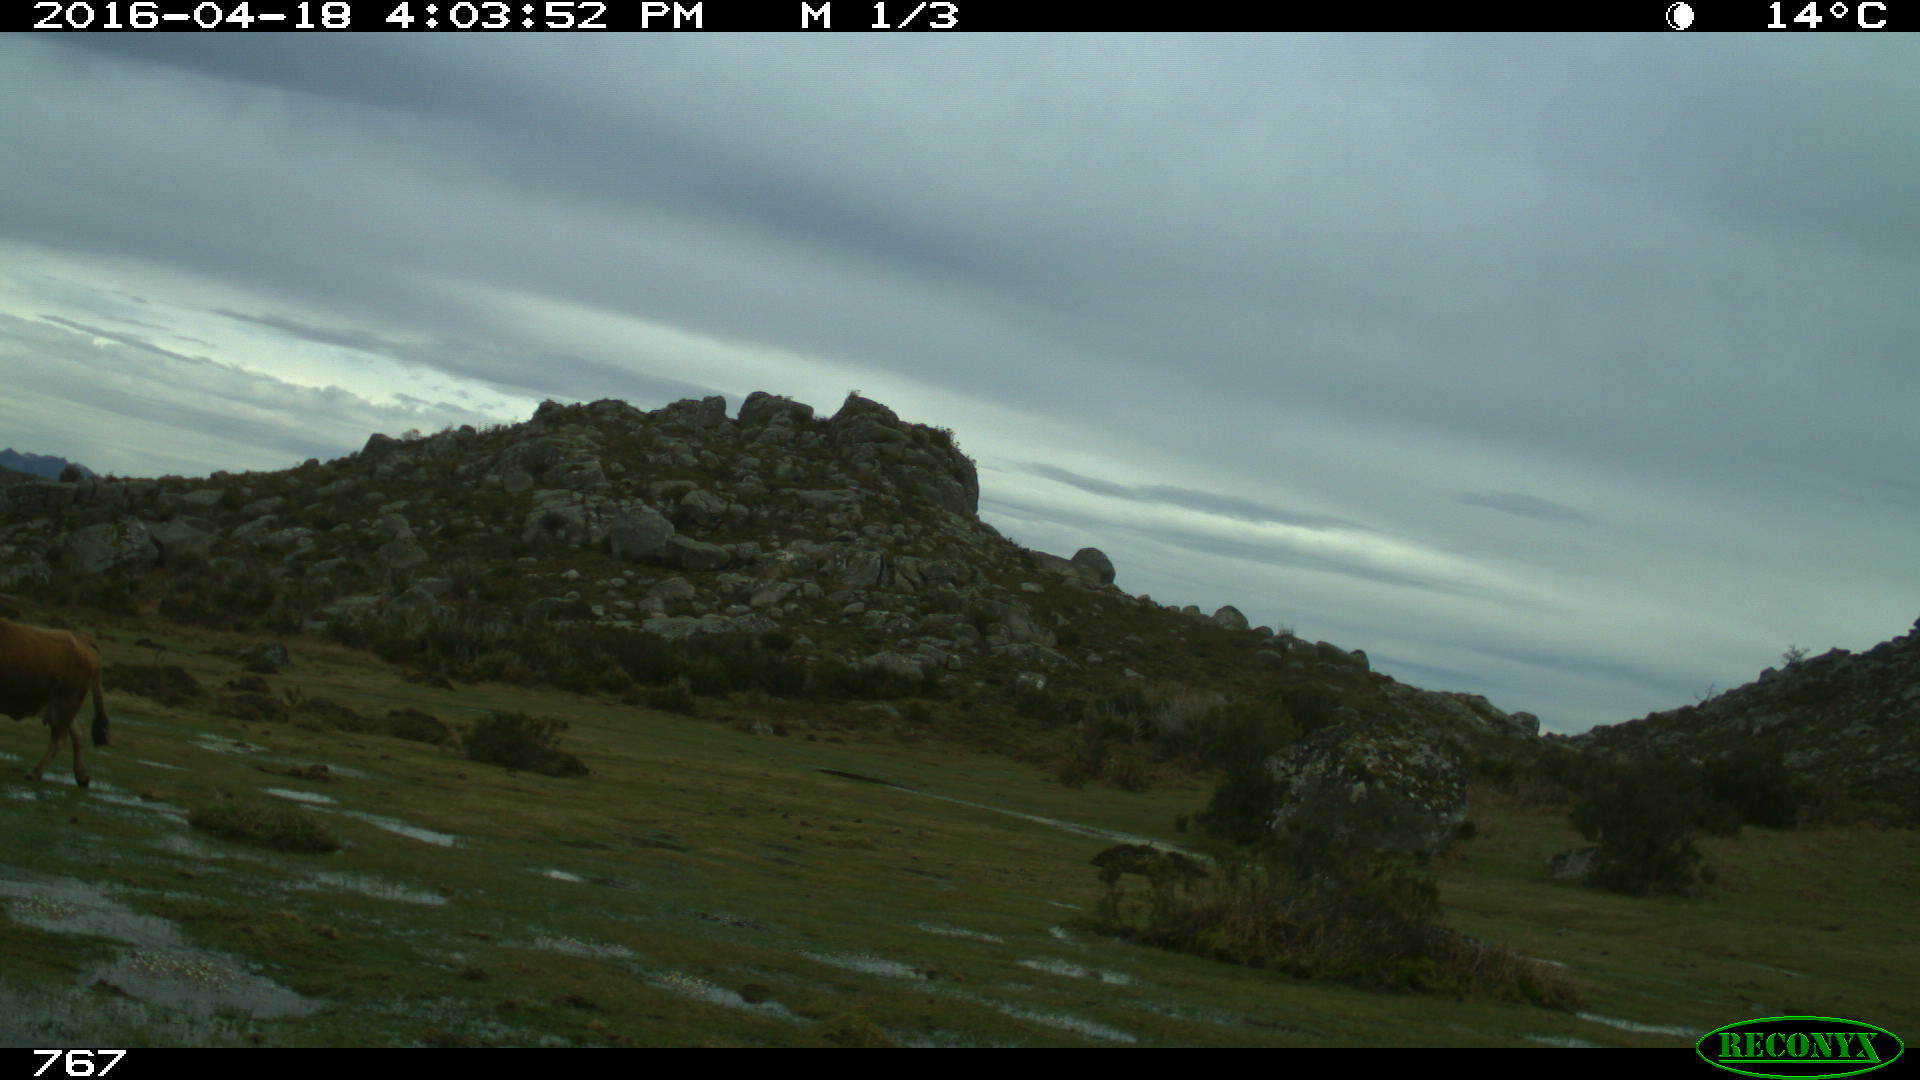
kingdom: Animalia
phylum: Chordata
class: Mammalia
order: Artiodactyla
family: Bovidae
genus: Bos
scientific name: Bos taurus
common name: Domesticated cattle
